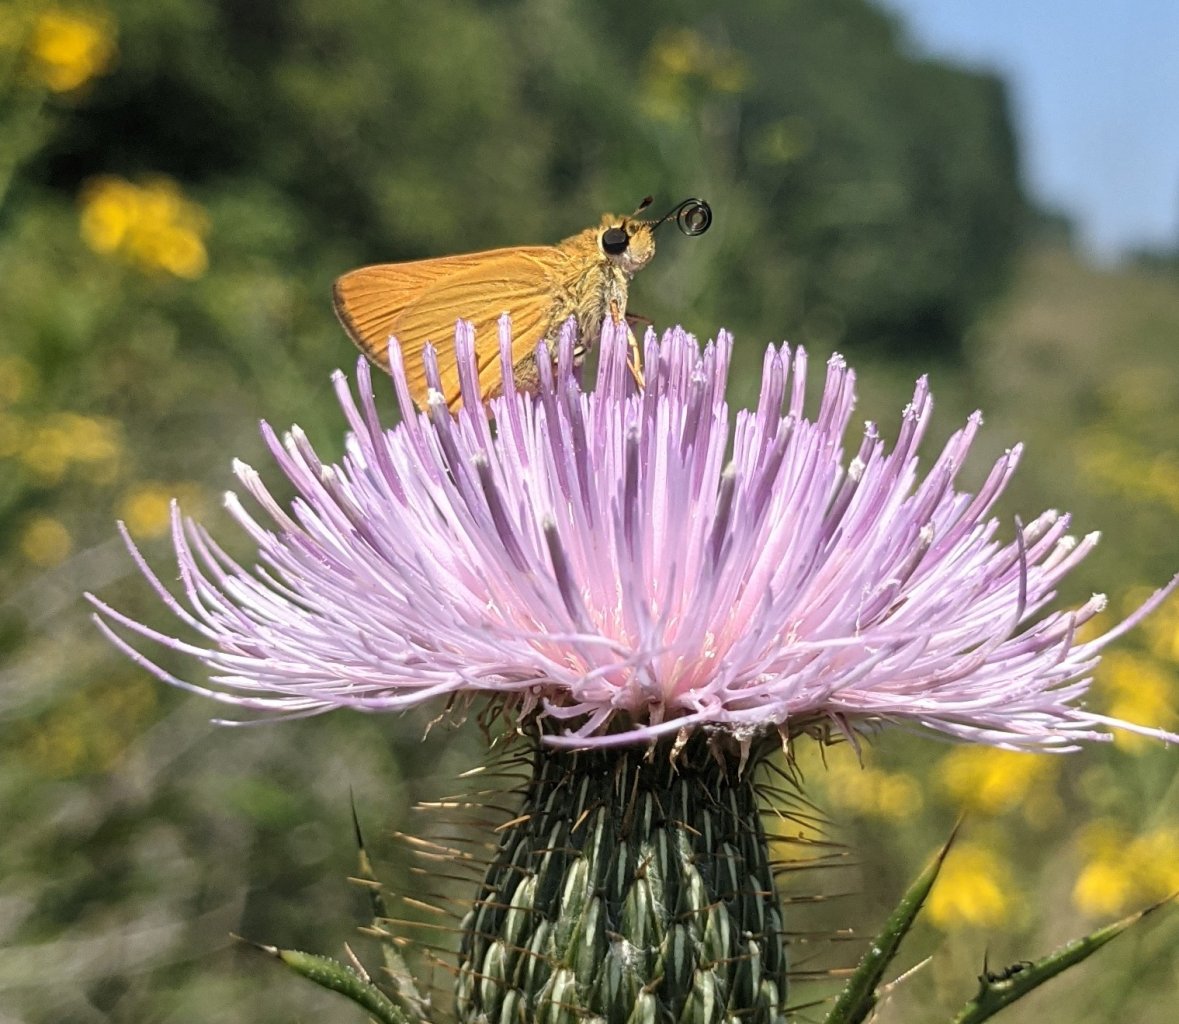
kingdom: Animalia
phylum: Arthropoda
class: Insecta
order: Lepidoptera
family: Hesperiidae
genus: Ancyloxypha
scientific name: Ancyloxypha numitor
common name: Least Skipper
